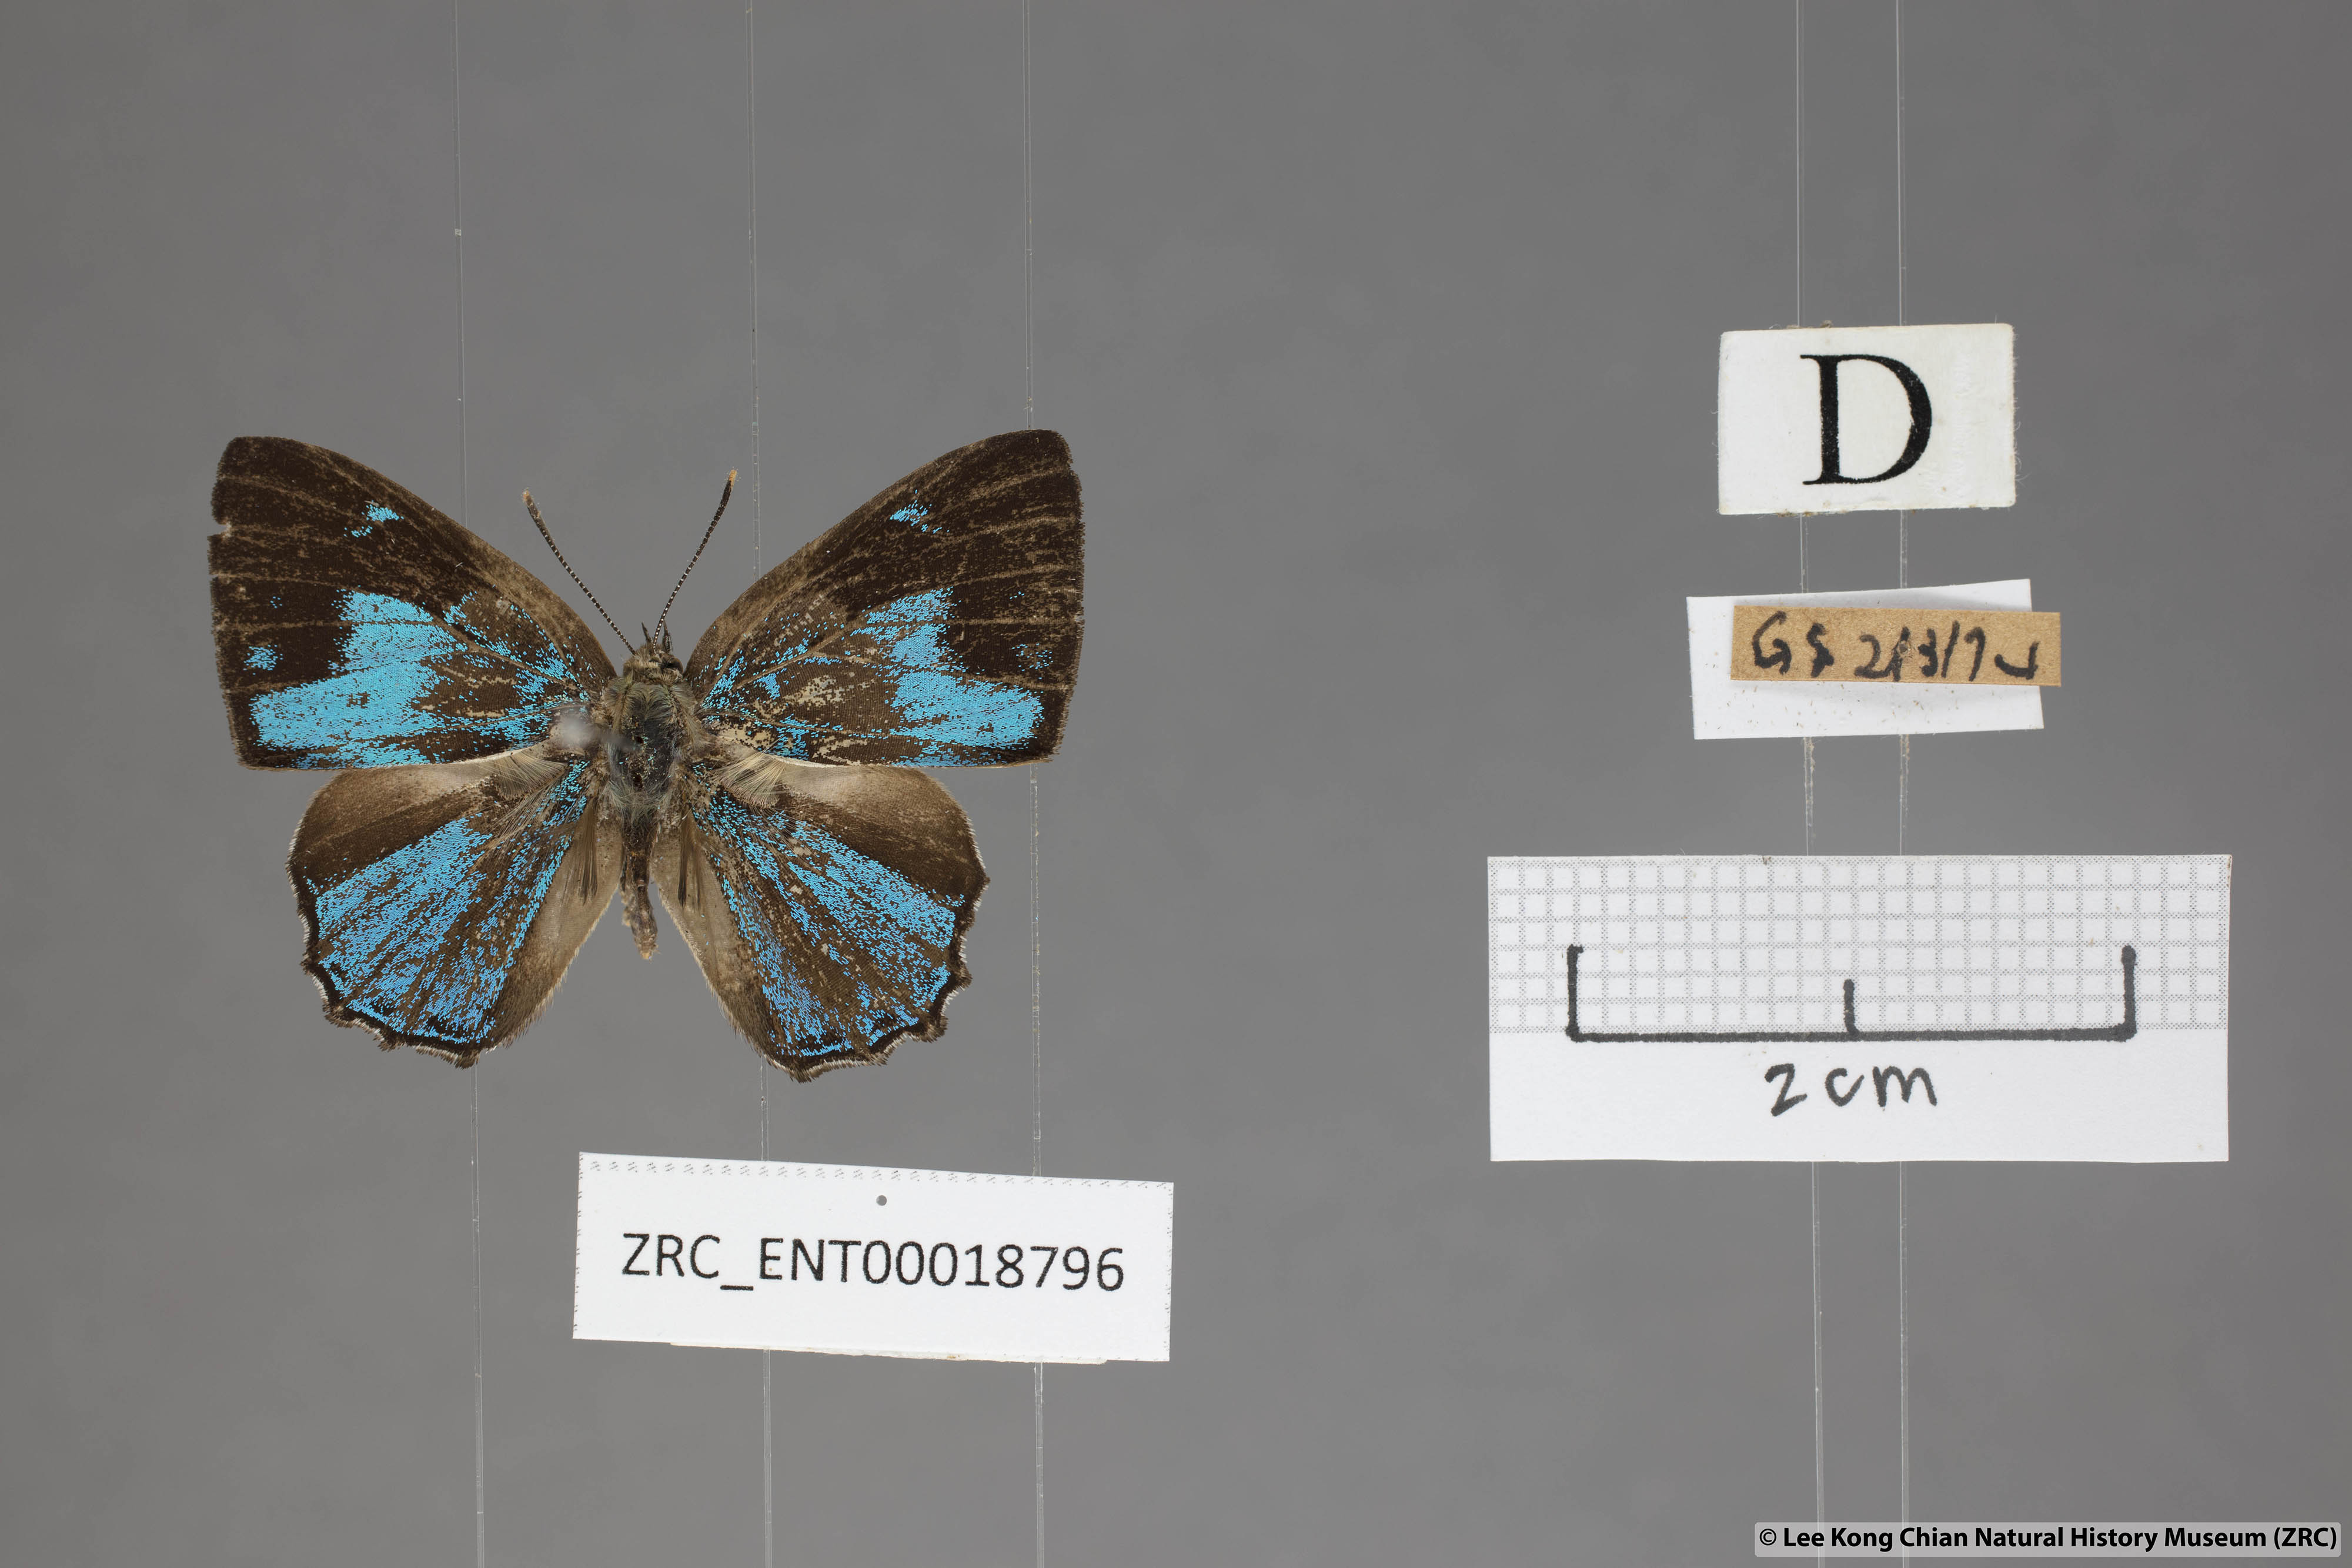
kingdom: Animalia
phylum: Arthropoda
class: Insecta
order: Lepidoptera
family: Lycaenidae
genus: Poritia
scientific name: Poritia pleurata
